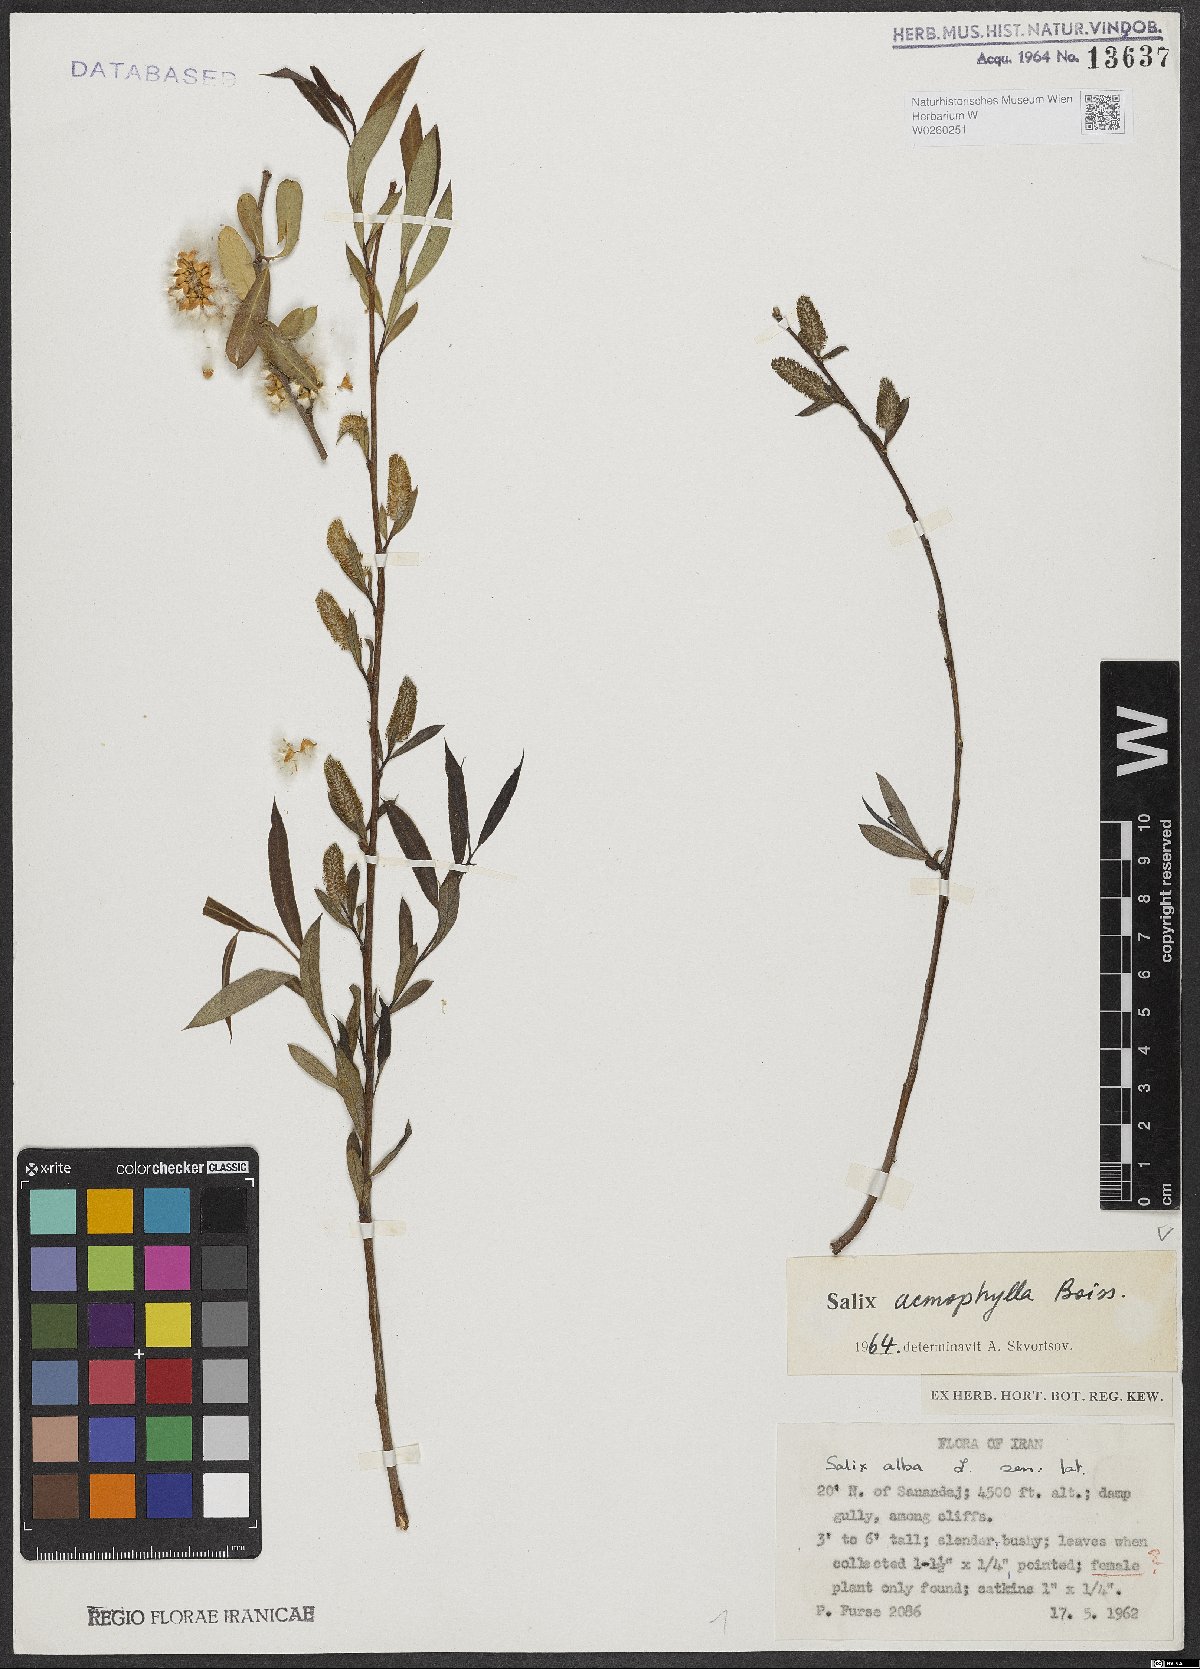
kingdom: Plantae
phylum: Tracheophyta
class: Magnoliopsida
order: Malpighiales
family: Salicaceae
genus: Salix
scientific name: Salix acmophylla
